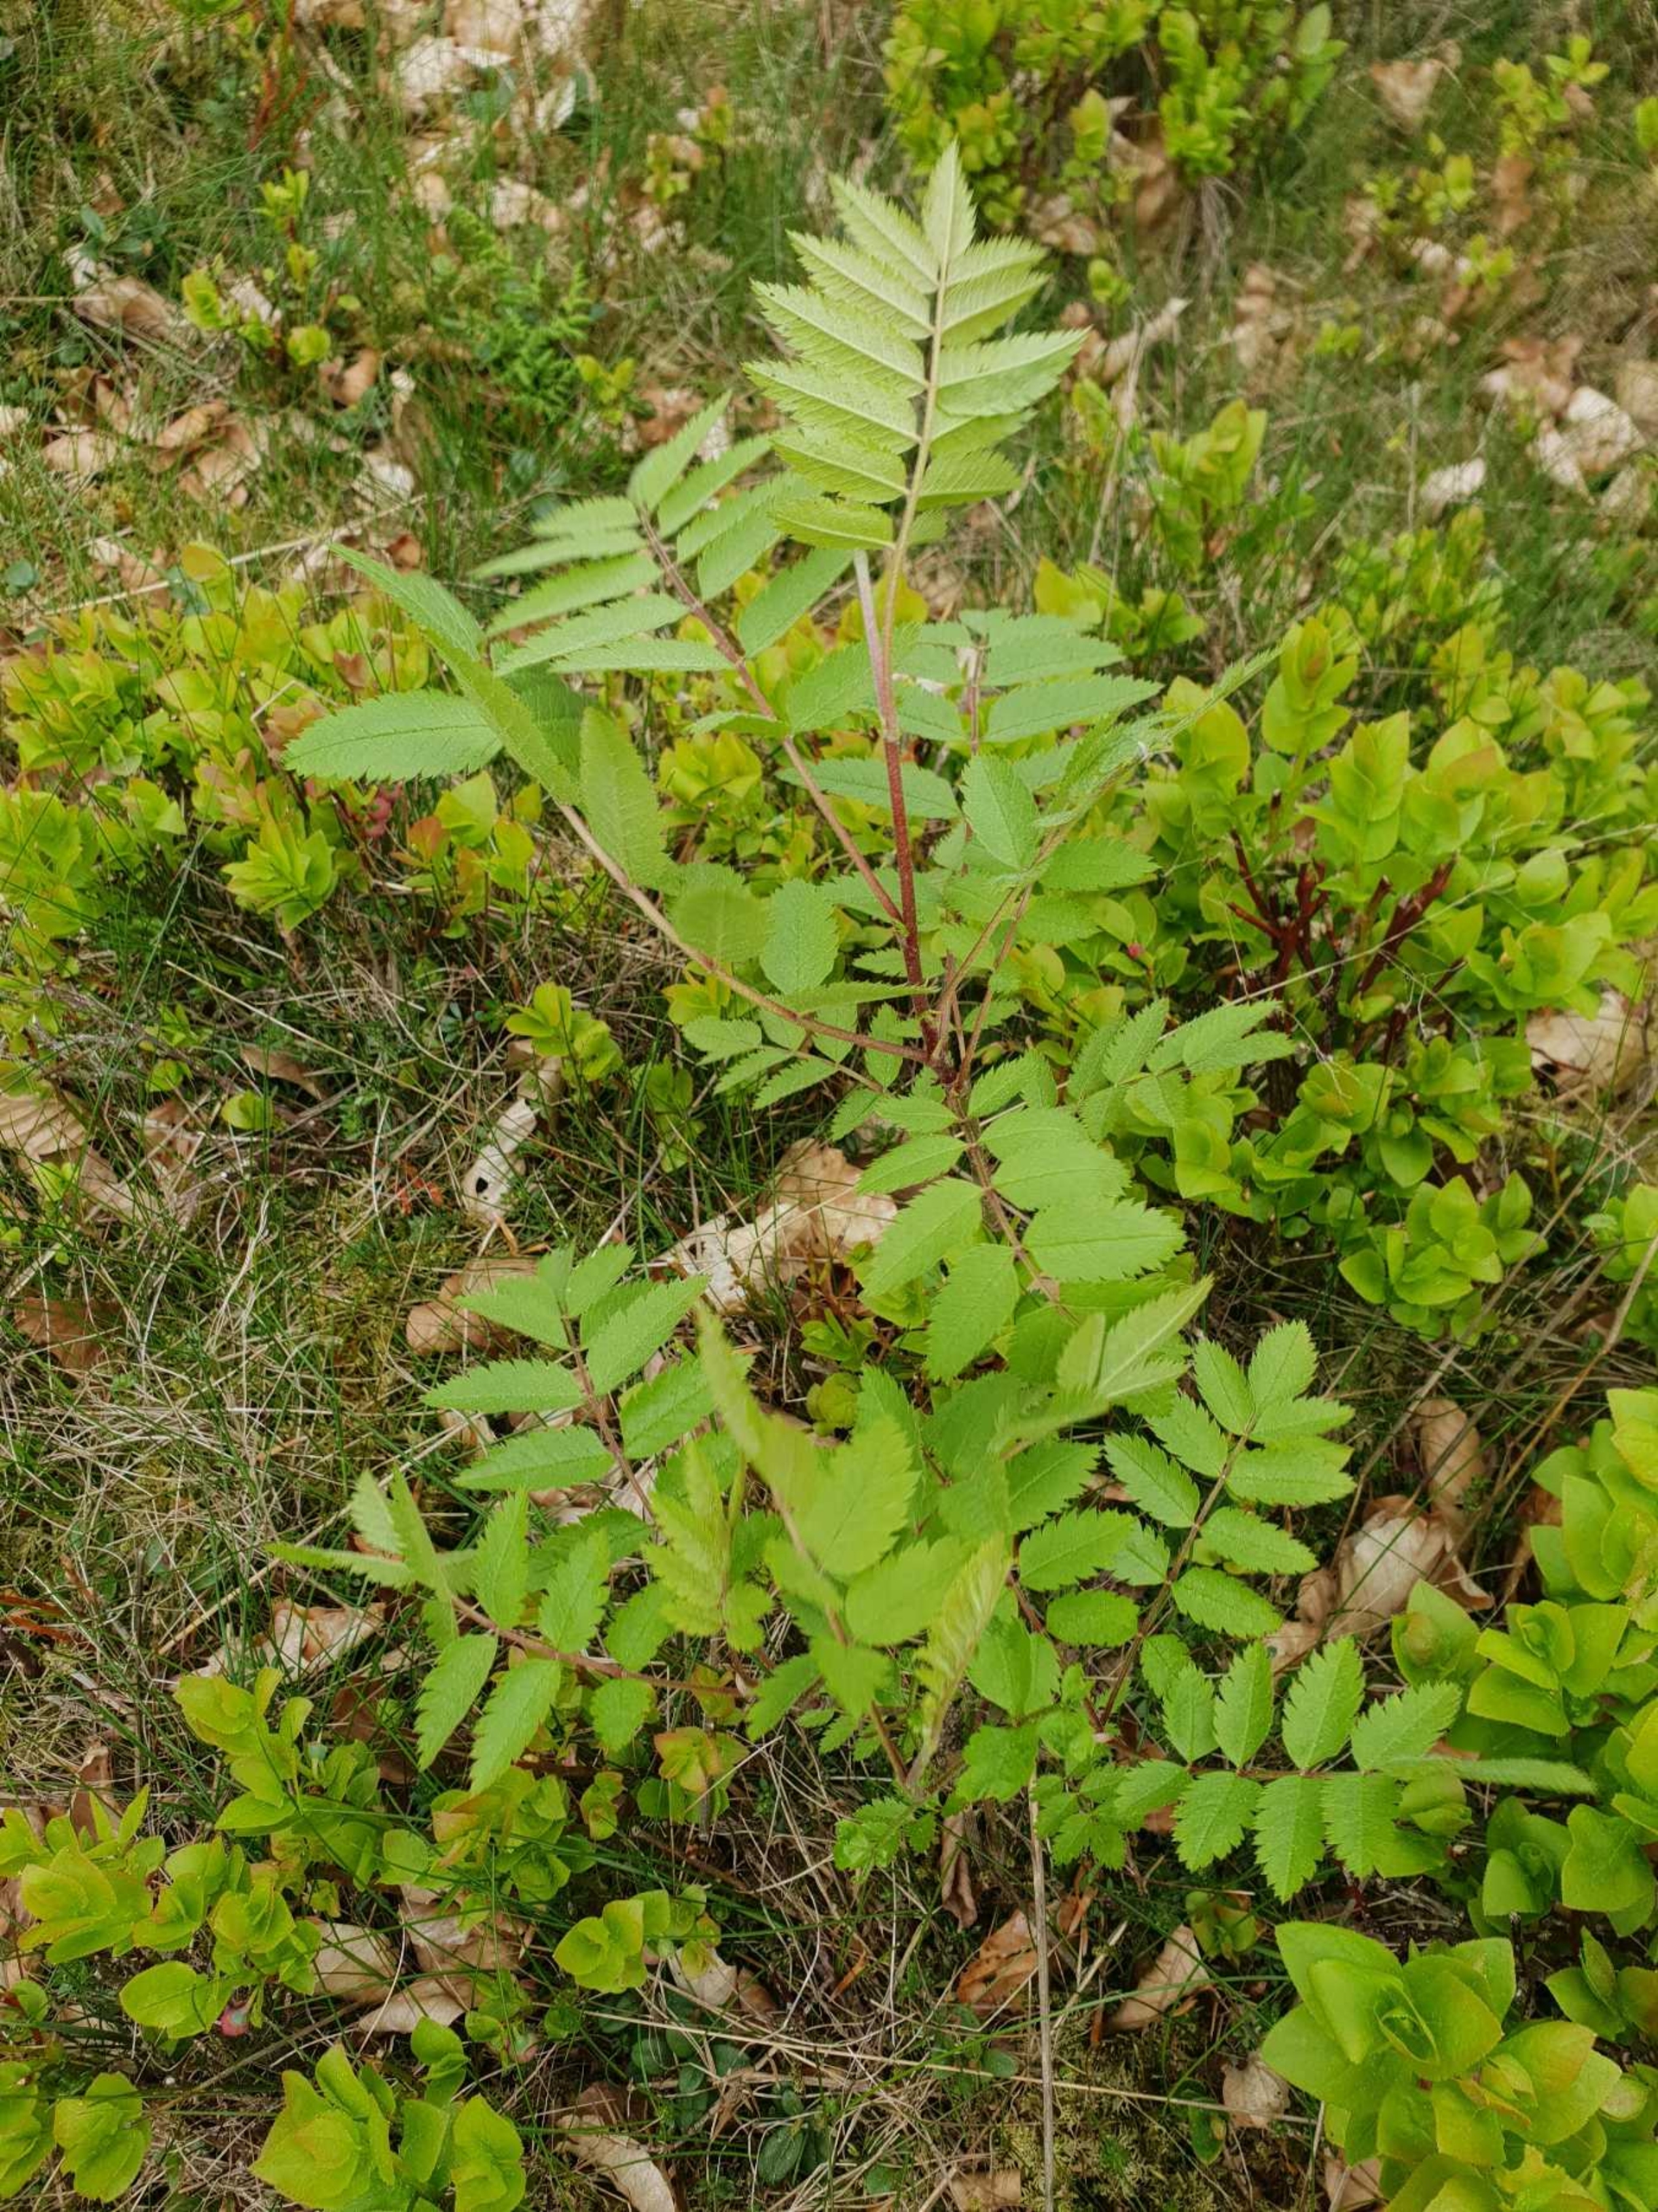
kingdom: Plantae
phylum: Tracheophyta
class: Magnoliopsida
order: Rosales
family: Rosaceae
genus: Sorbus
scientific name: Sorbus aucuparia
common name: Almindelig røn
